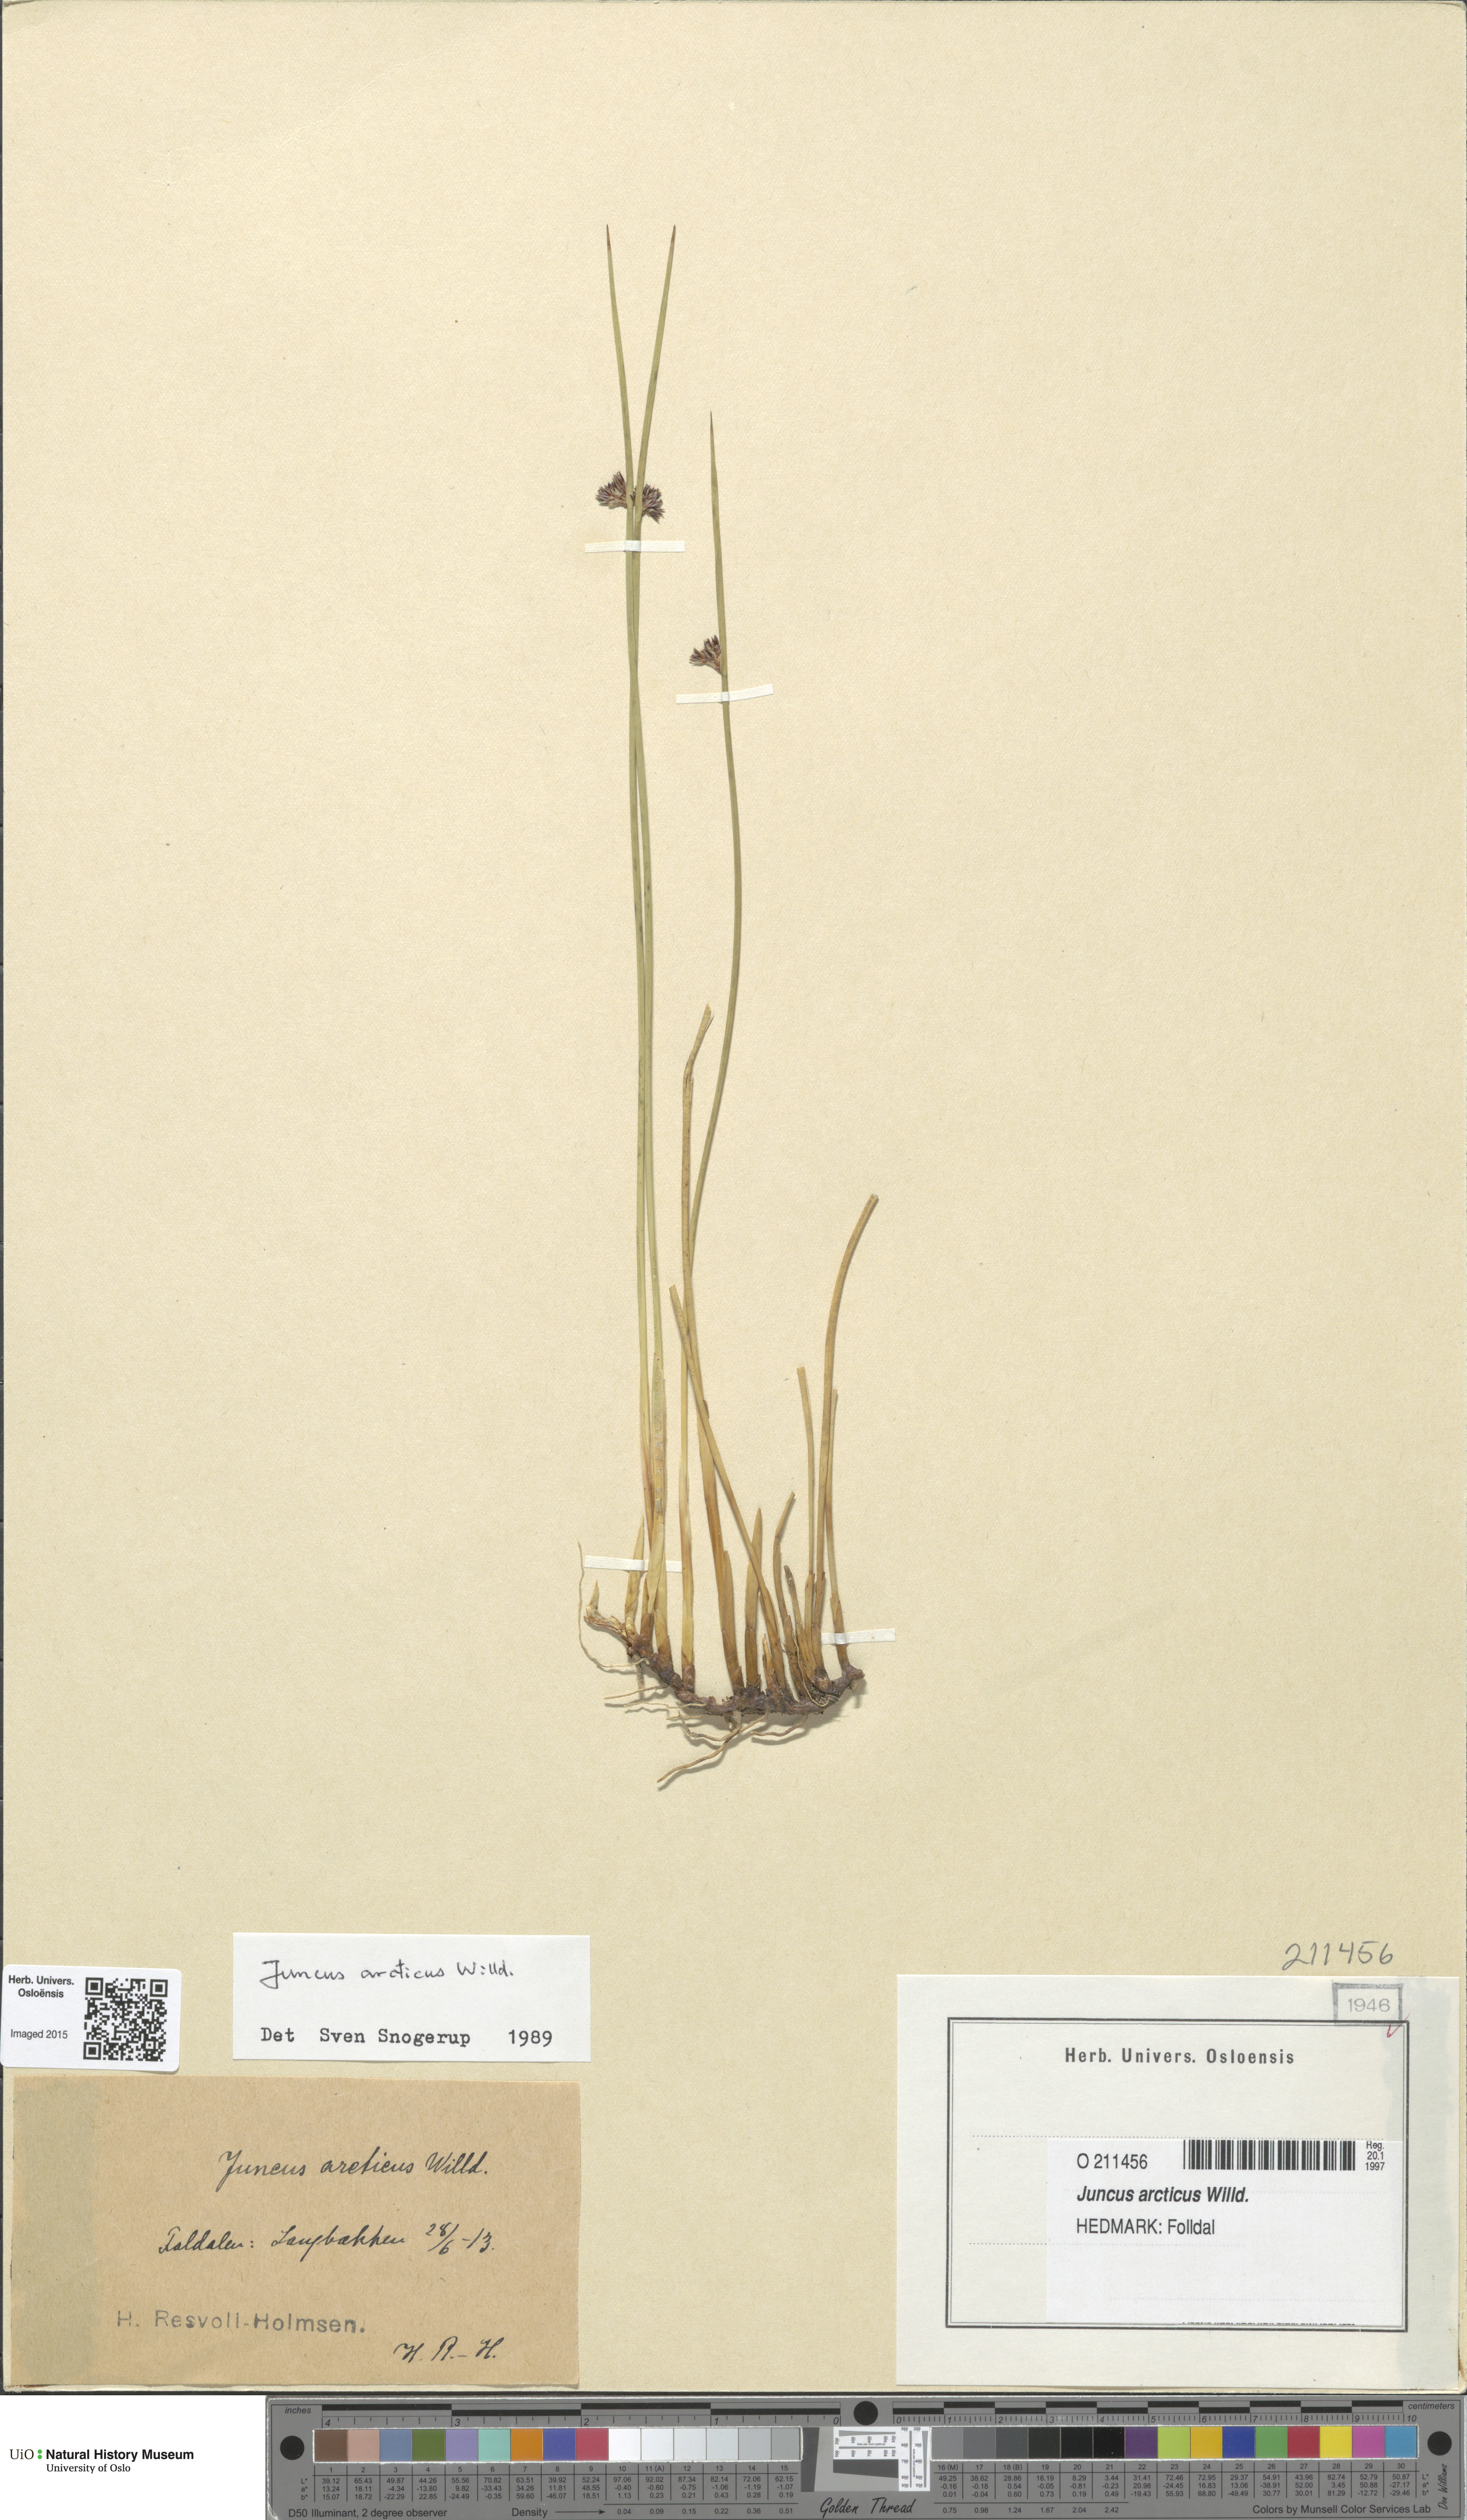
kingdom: Plantae
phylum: Tracheophyta
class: Liliopsida
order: Poales
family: Juncaceae
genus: Juncus
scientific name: Juncus arcticus
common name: Arctic rush
